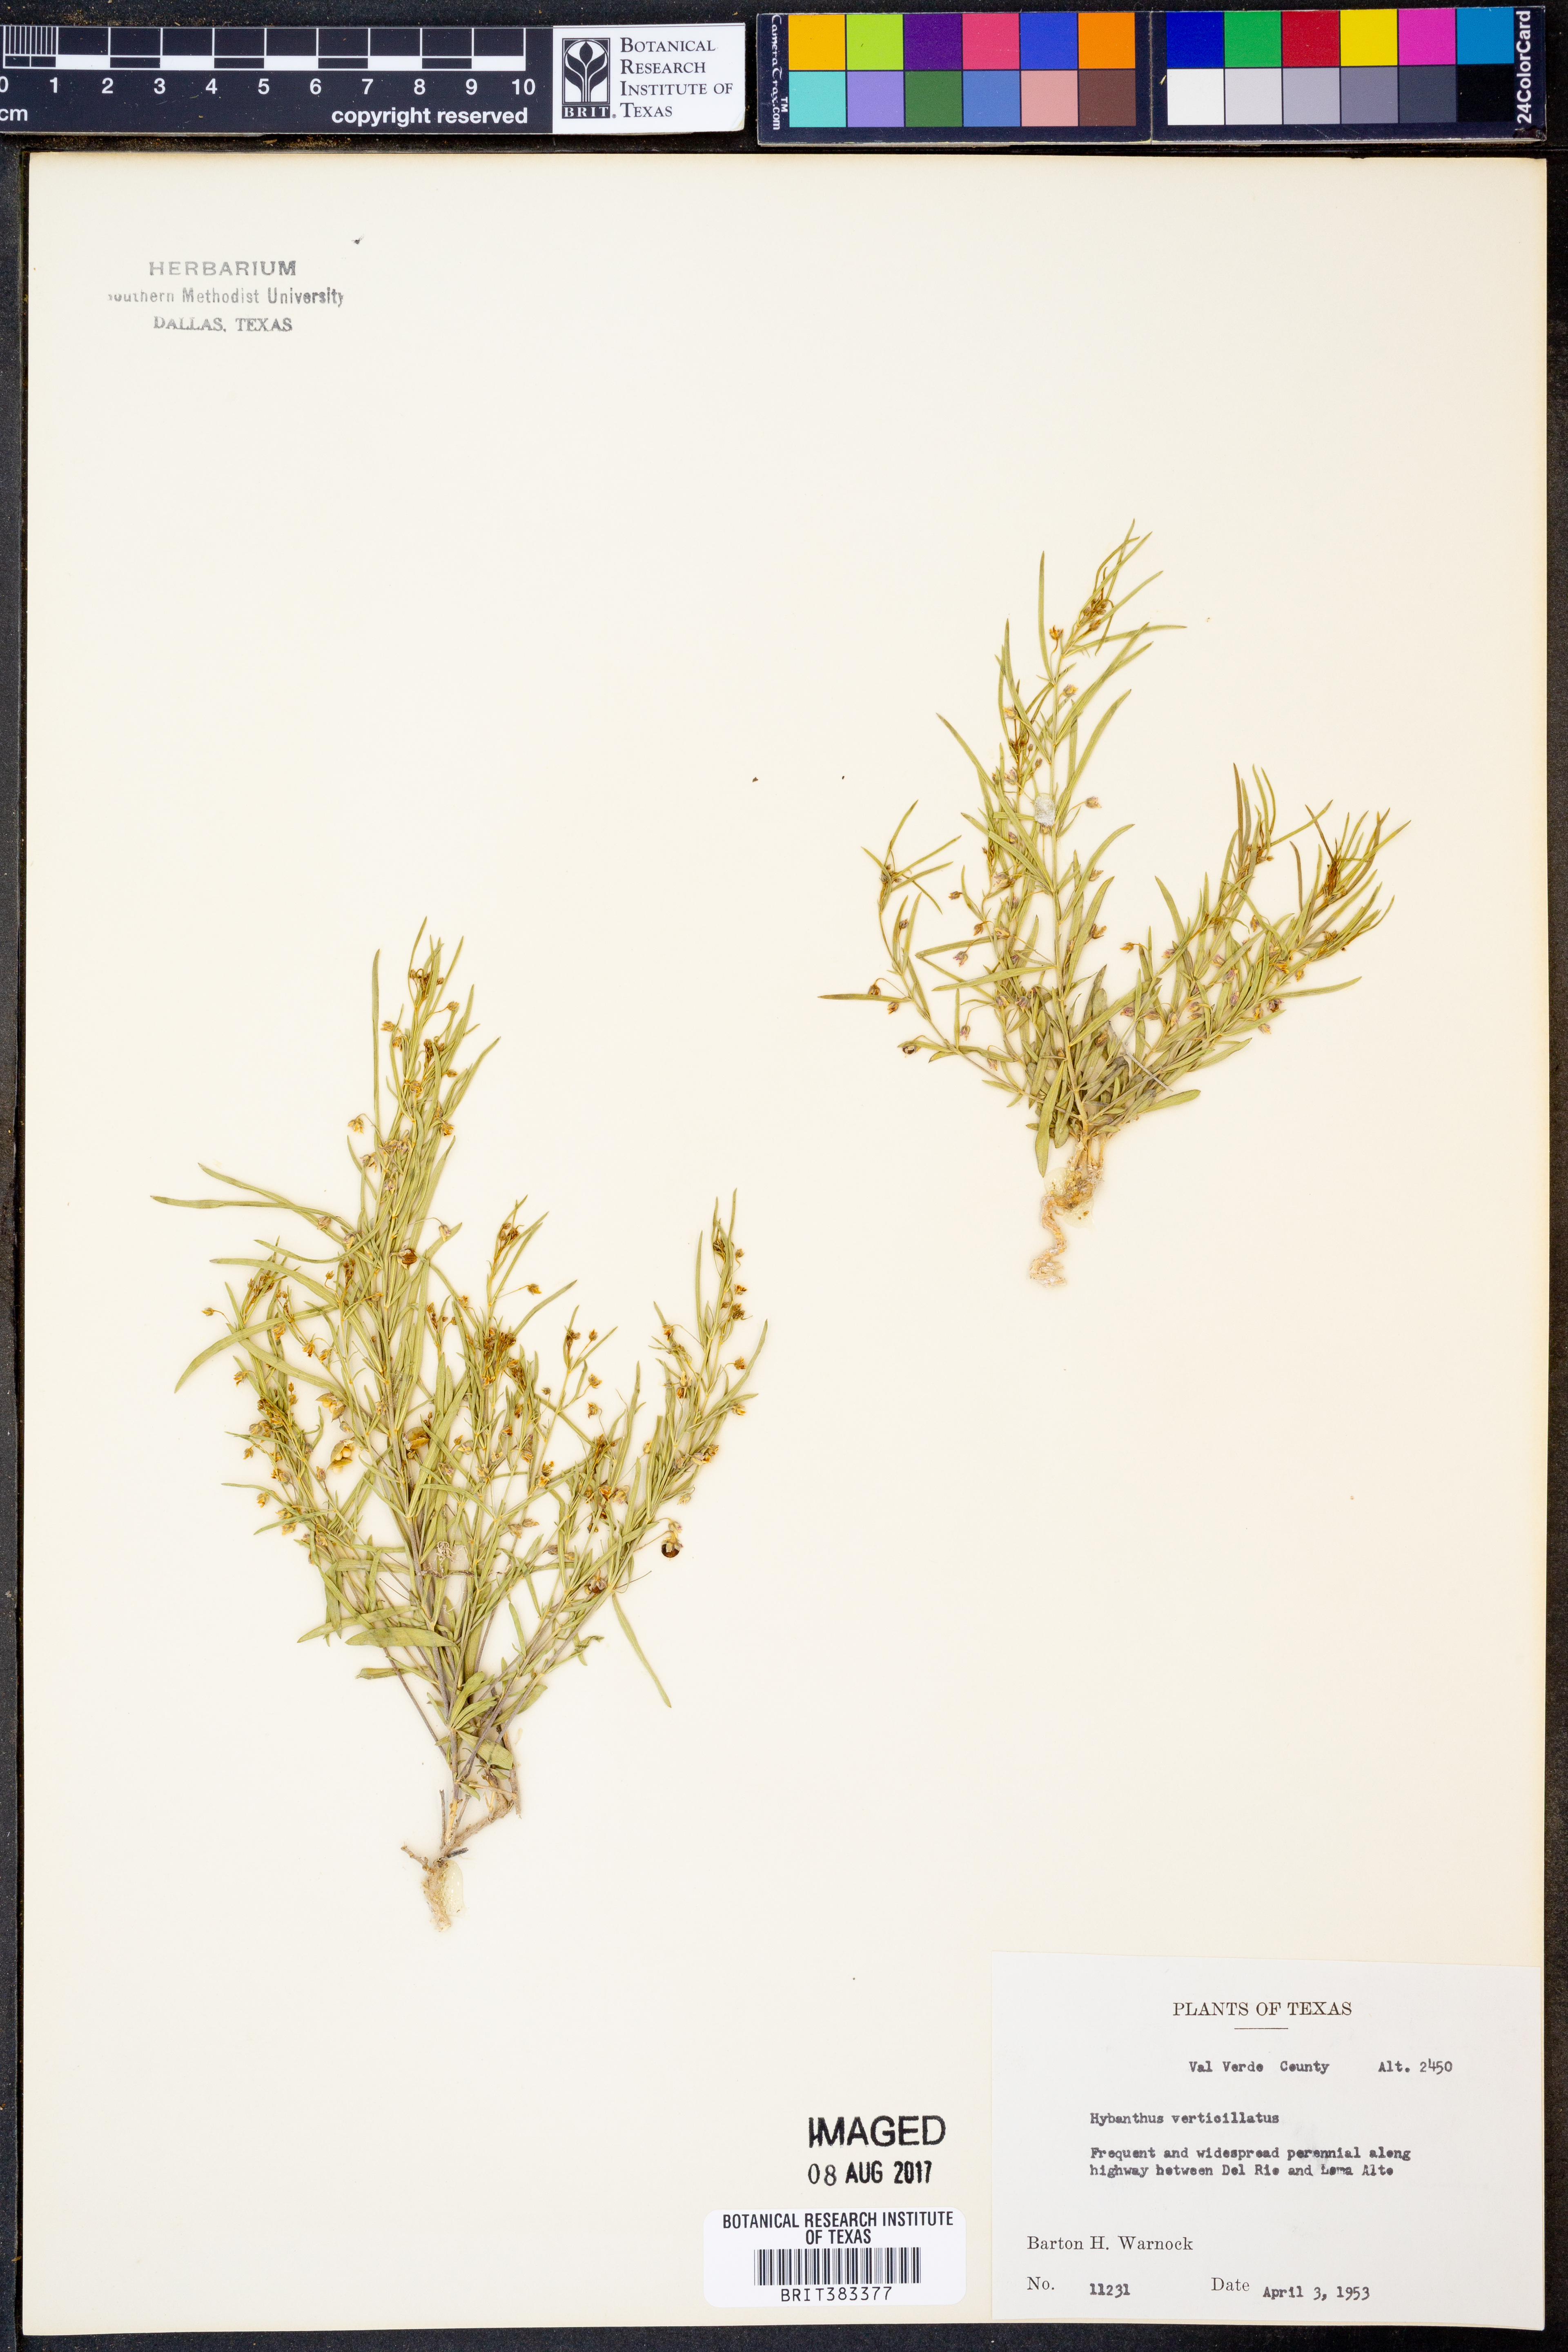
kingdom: Plantae
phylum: Tracheophyta
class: Magnoliopsida
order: Malpighiales
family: Violaceae
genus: Pombalia
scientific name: Pombalia verticillata
